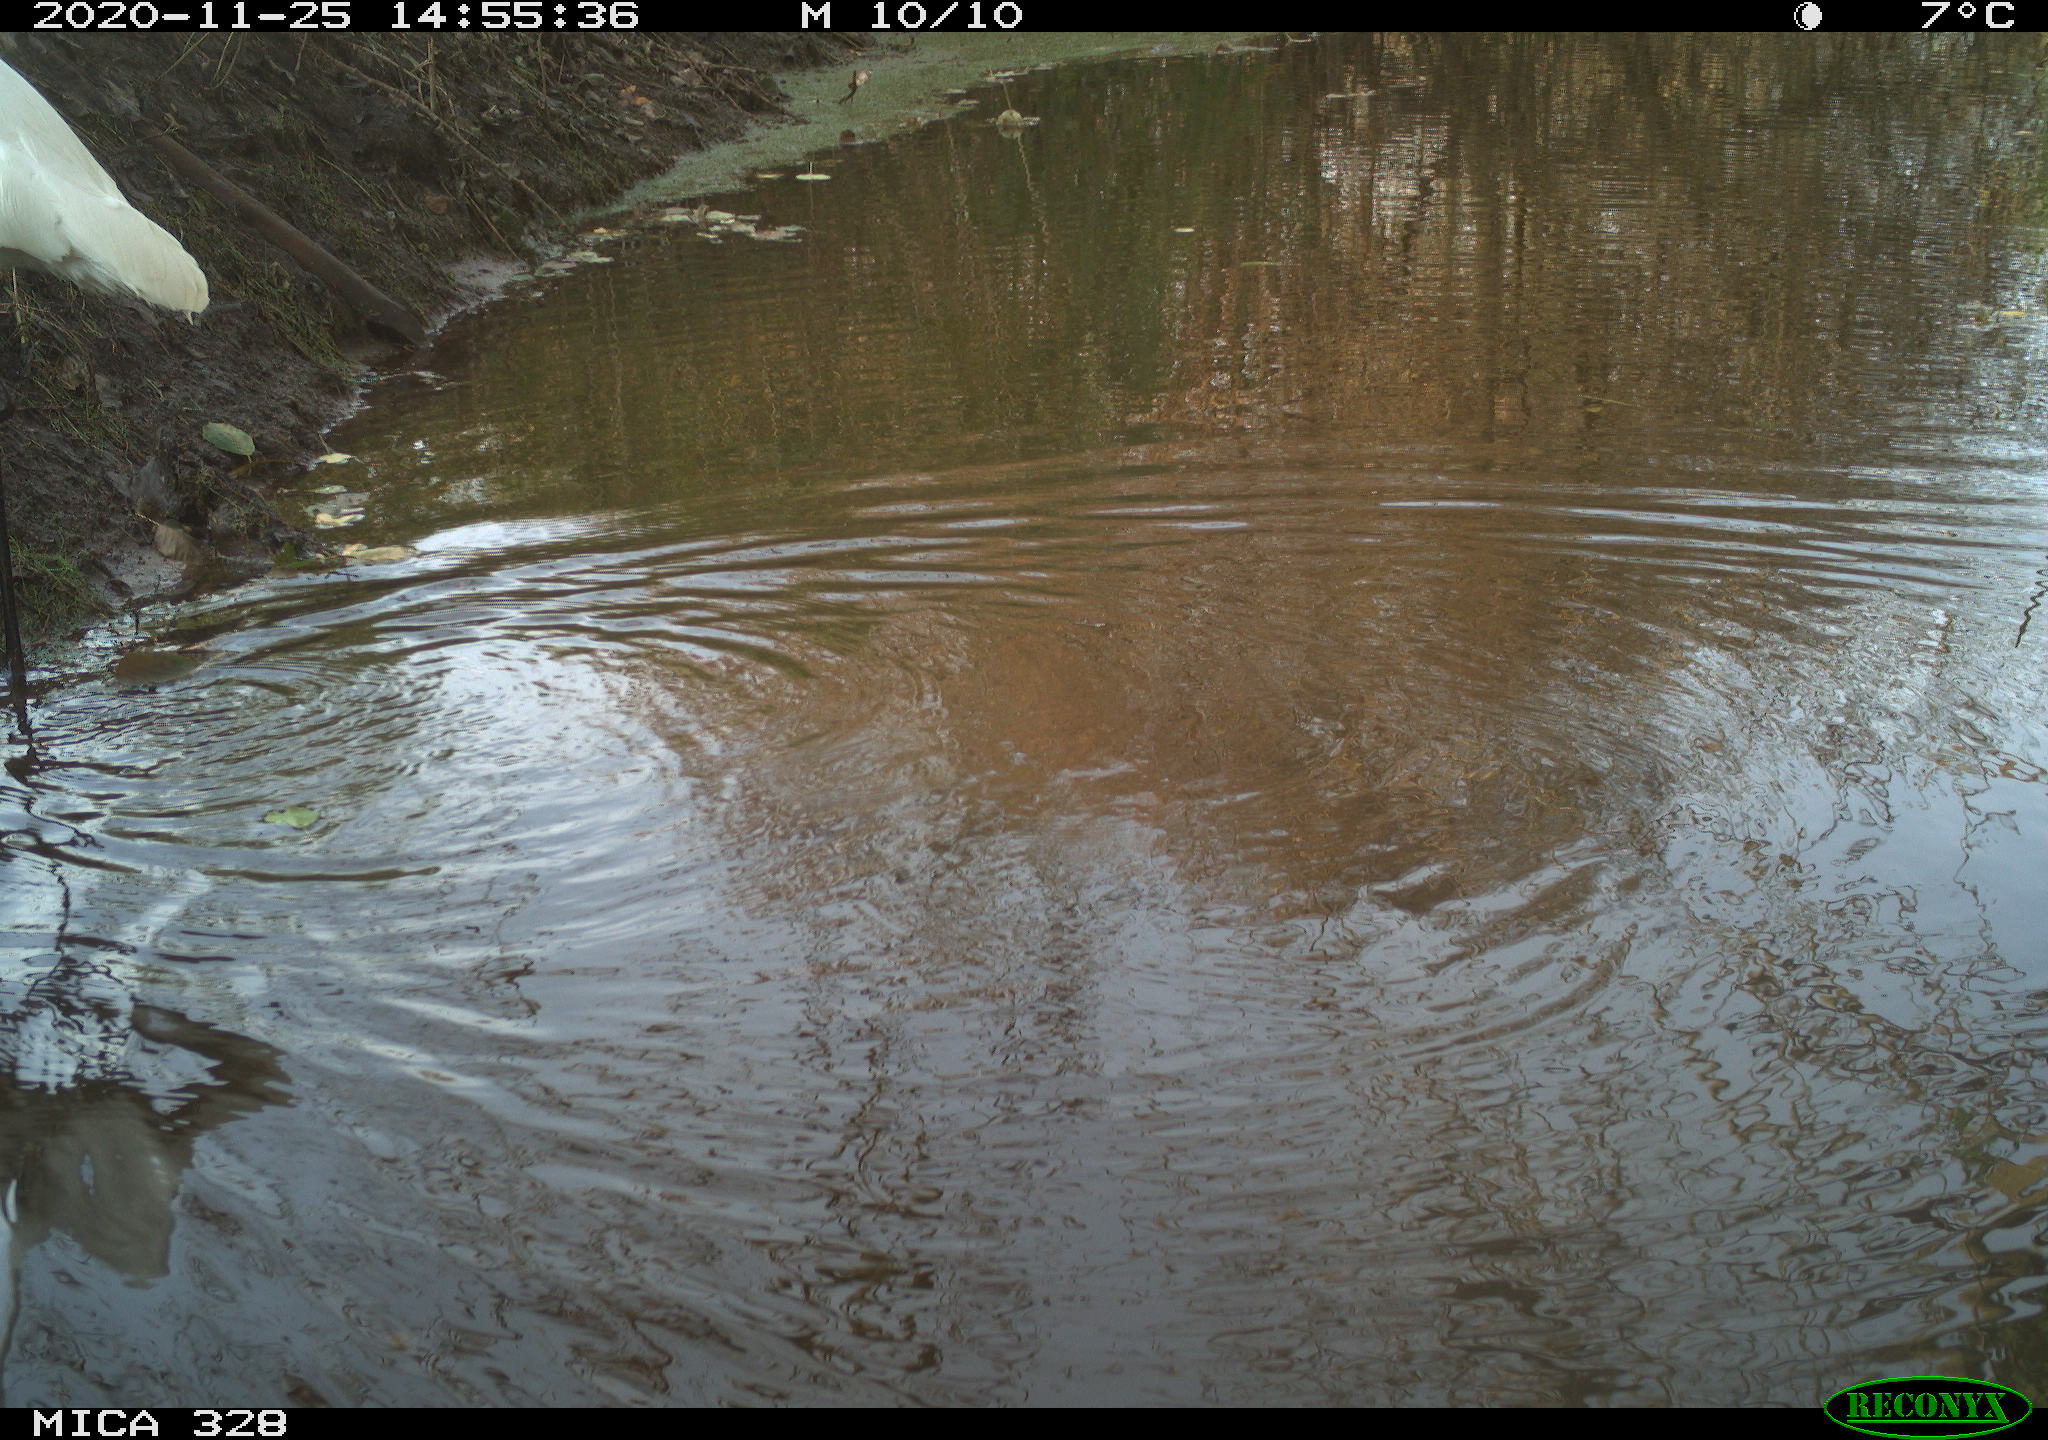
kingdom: Animalia
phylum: Chordata
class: Aves
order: Pelecaniformes
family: Ardeidae
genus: Ardea
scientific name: Ardea alba
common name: Great egret
